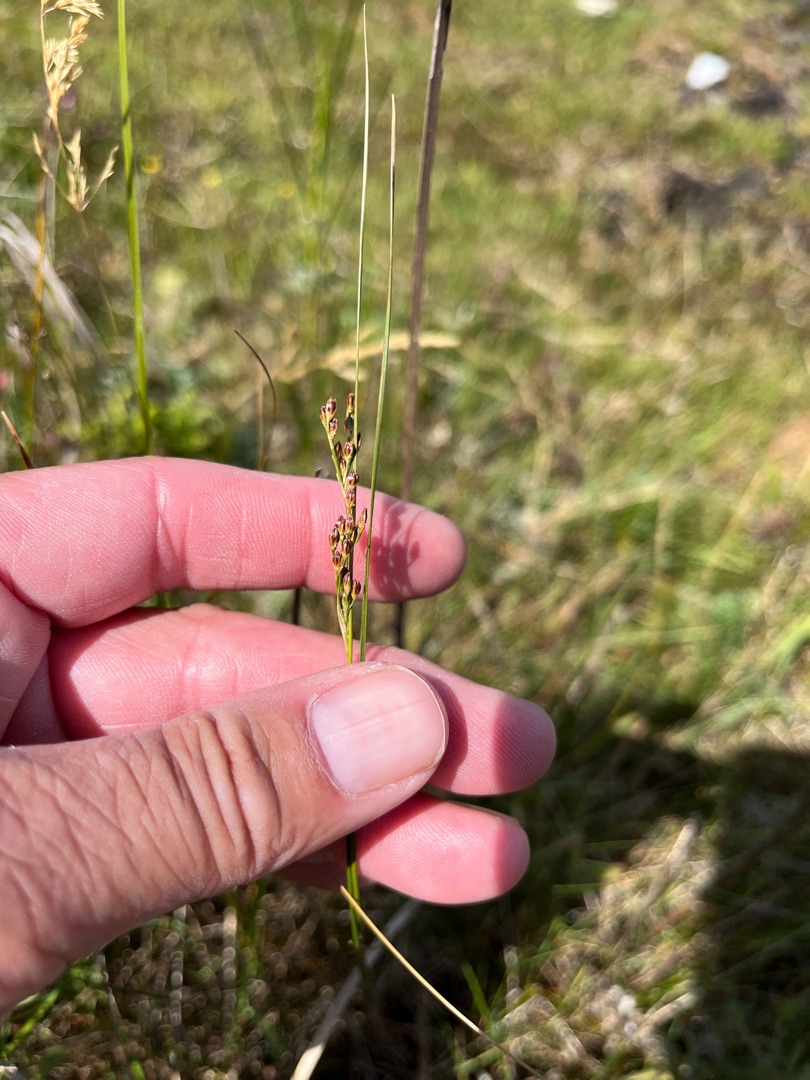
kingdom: Plantae
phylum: Tracheophyta
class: Liliopsida
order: Poales
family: Juncaceae
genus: Juncus
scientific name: Juncus gerardi
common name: Harril
